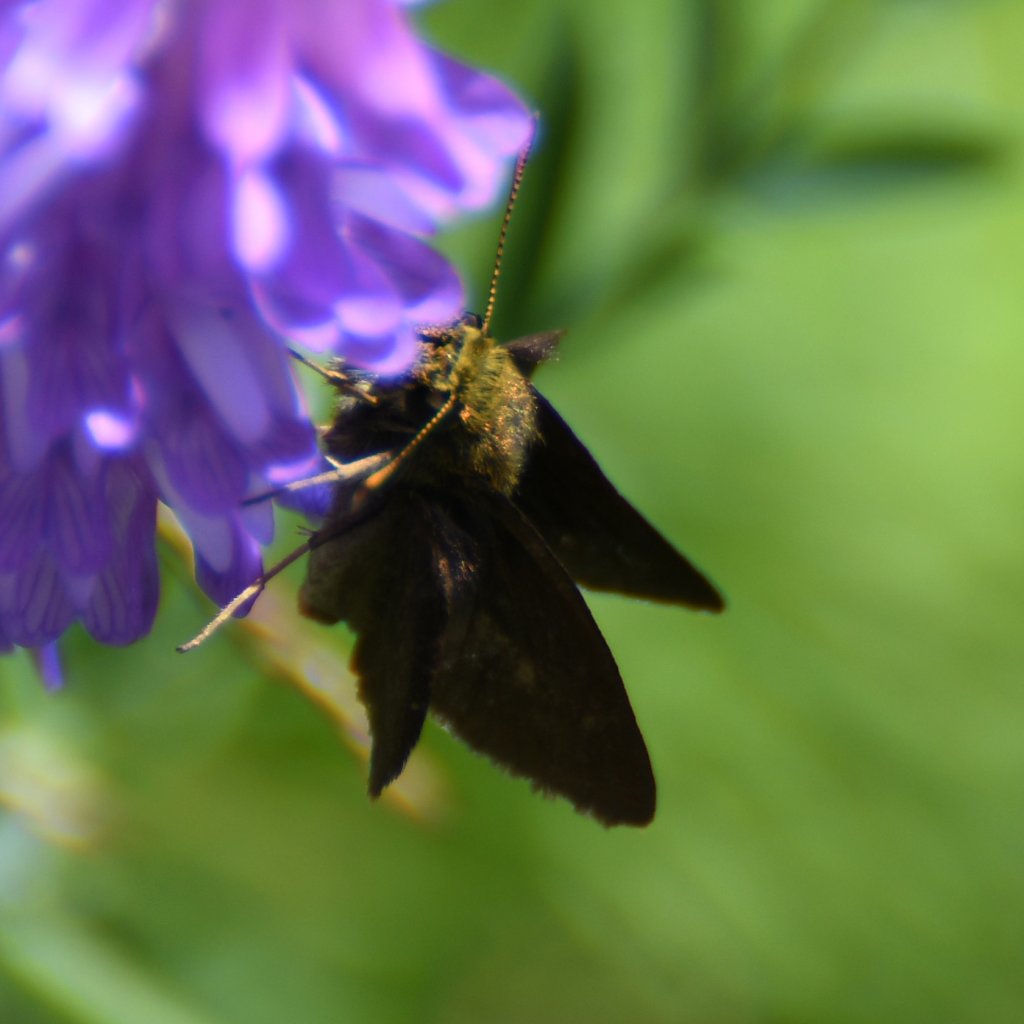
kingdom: Animalia
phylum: Arthropoda
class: Insecta
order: Lepidoptera
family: Hesperiidae
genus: Euphyes
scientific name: Euphyes vestris
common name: Dun Skipper
